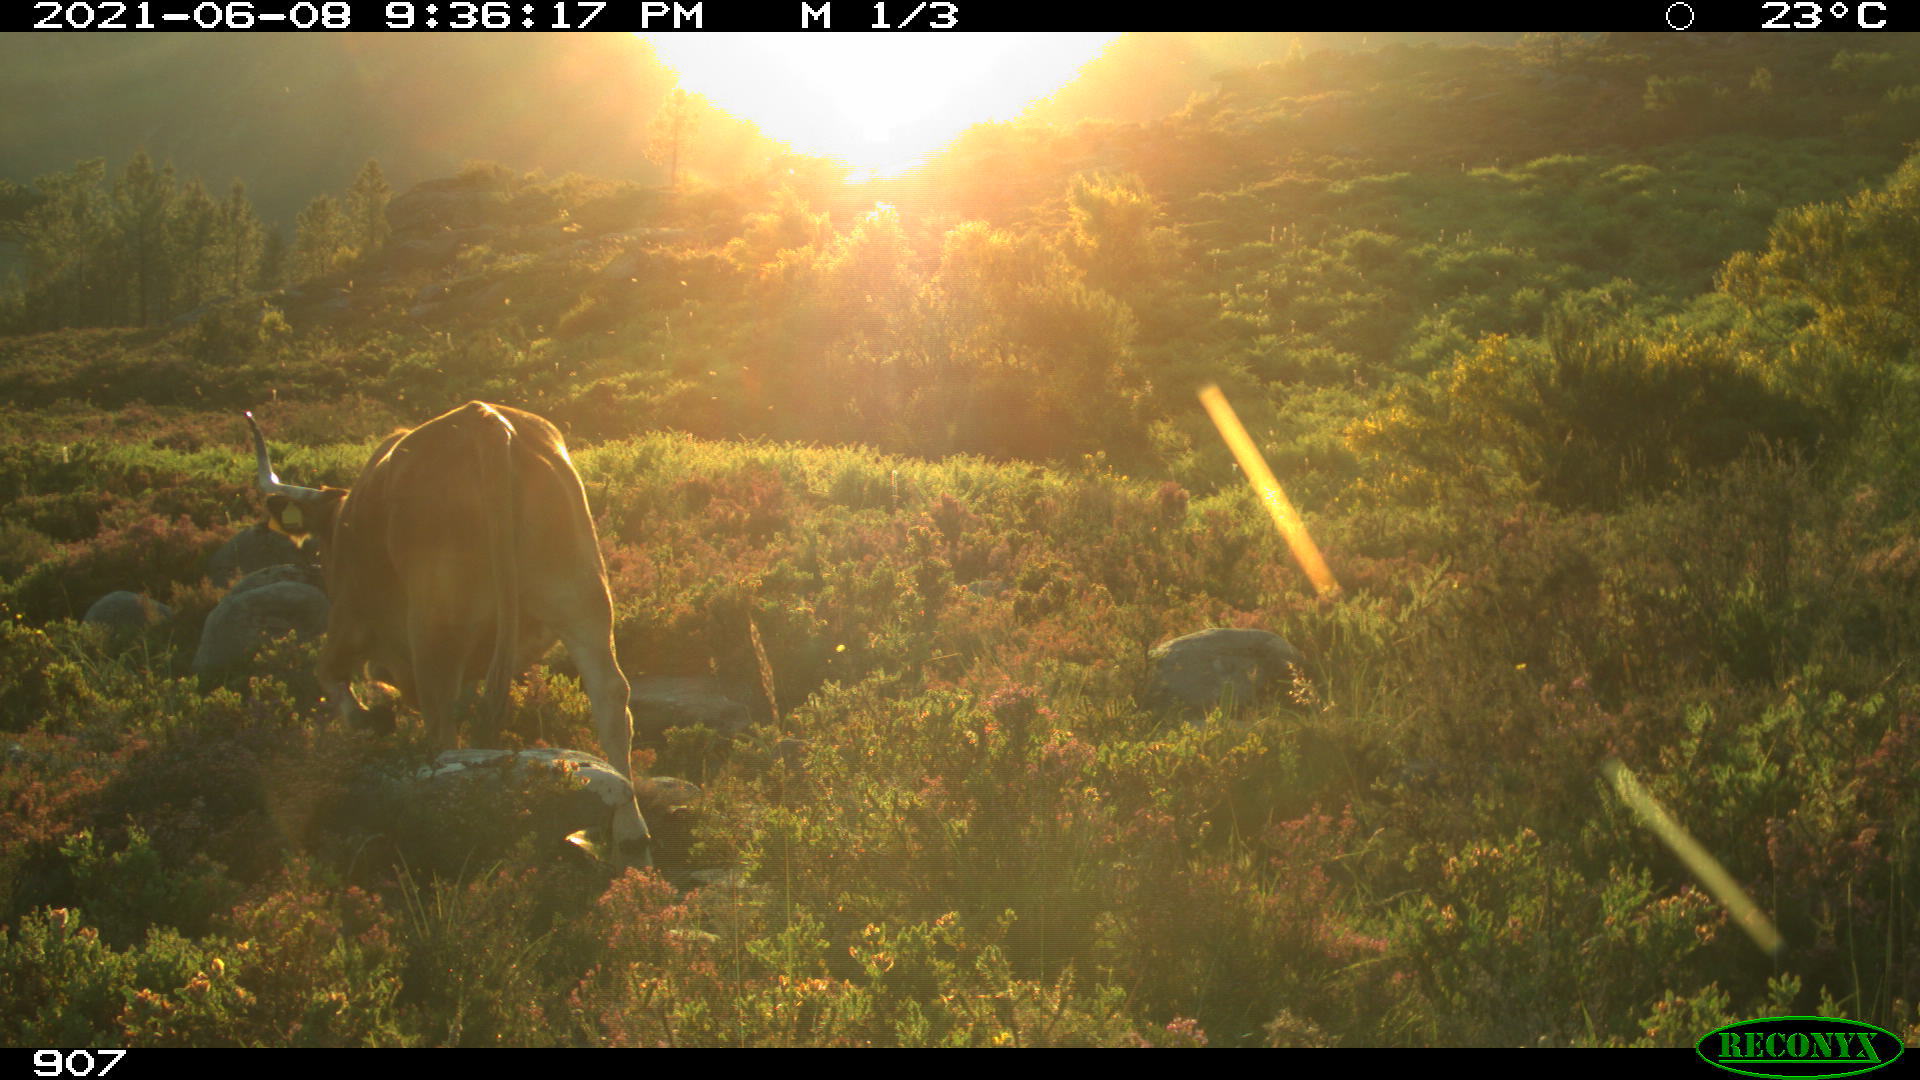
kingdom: Animalia
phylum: Chordata
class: Mammalia
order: Artiodactyla
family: Bovidae
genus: Bos
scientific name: Bos taurus
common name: Domesticated cattle
